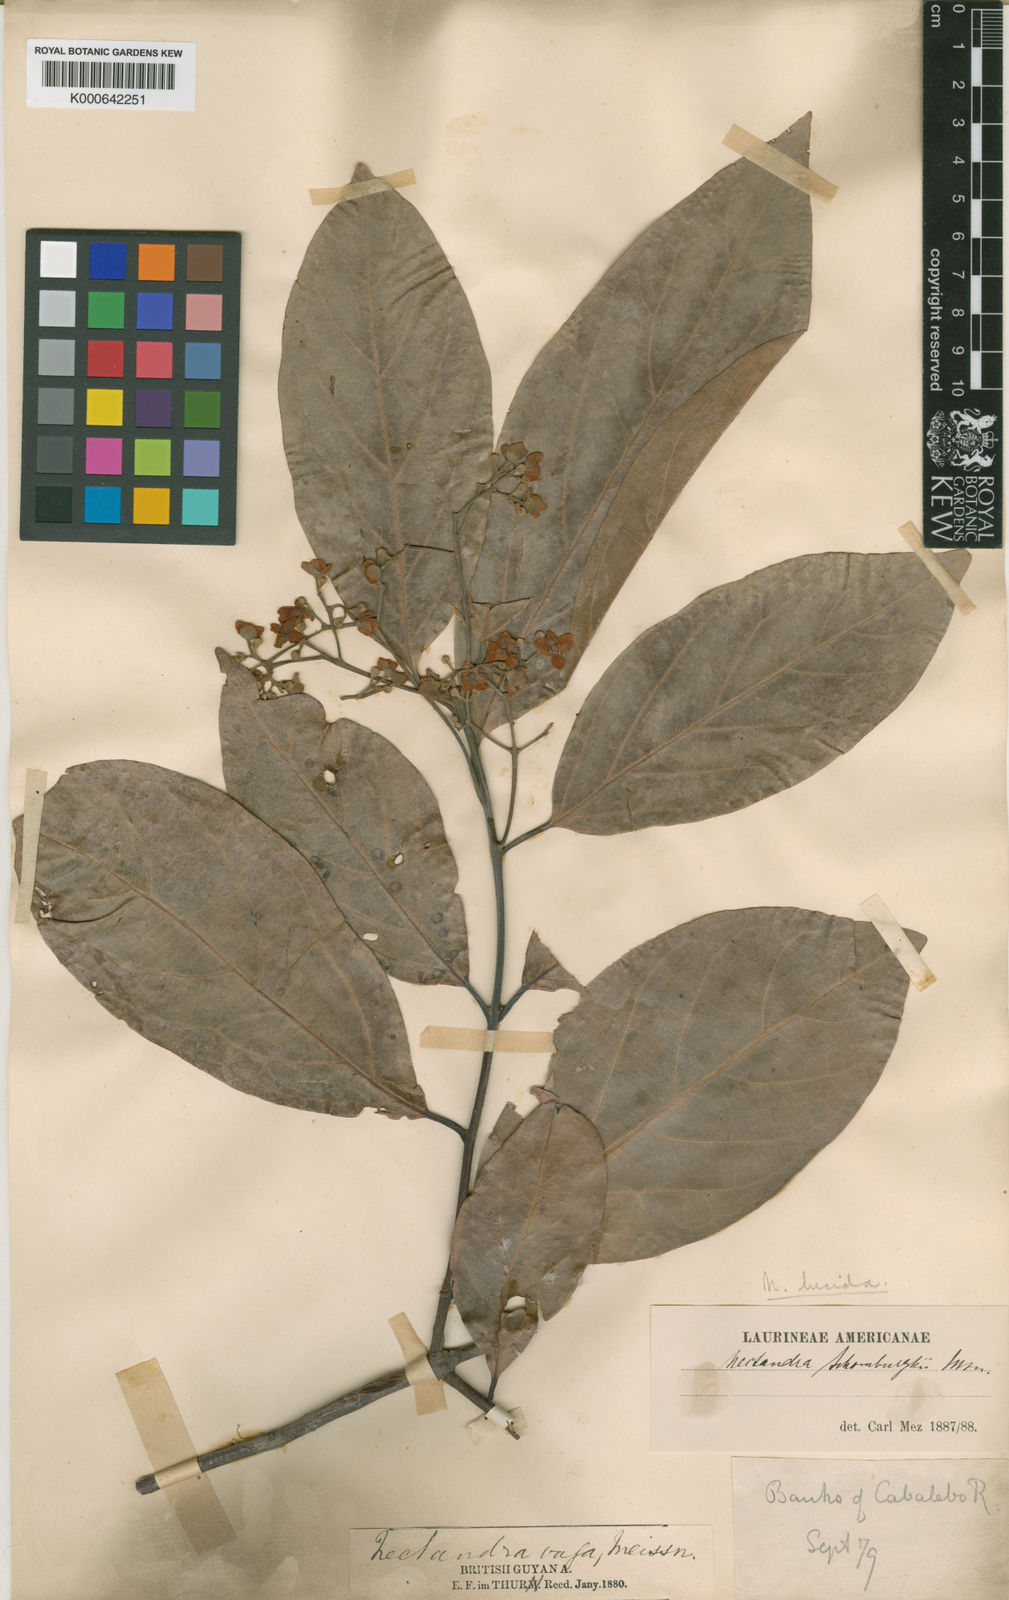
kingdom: Plantae
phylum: Tracheophyta
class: Magnoliopsida
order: Laurales
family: Lauraceae
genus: Endlicheria
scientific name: Endlicheria paniculata
